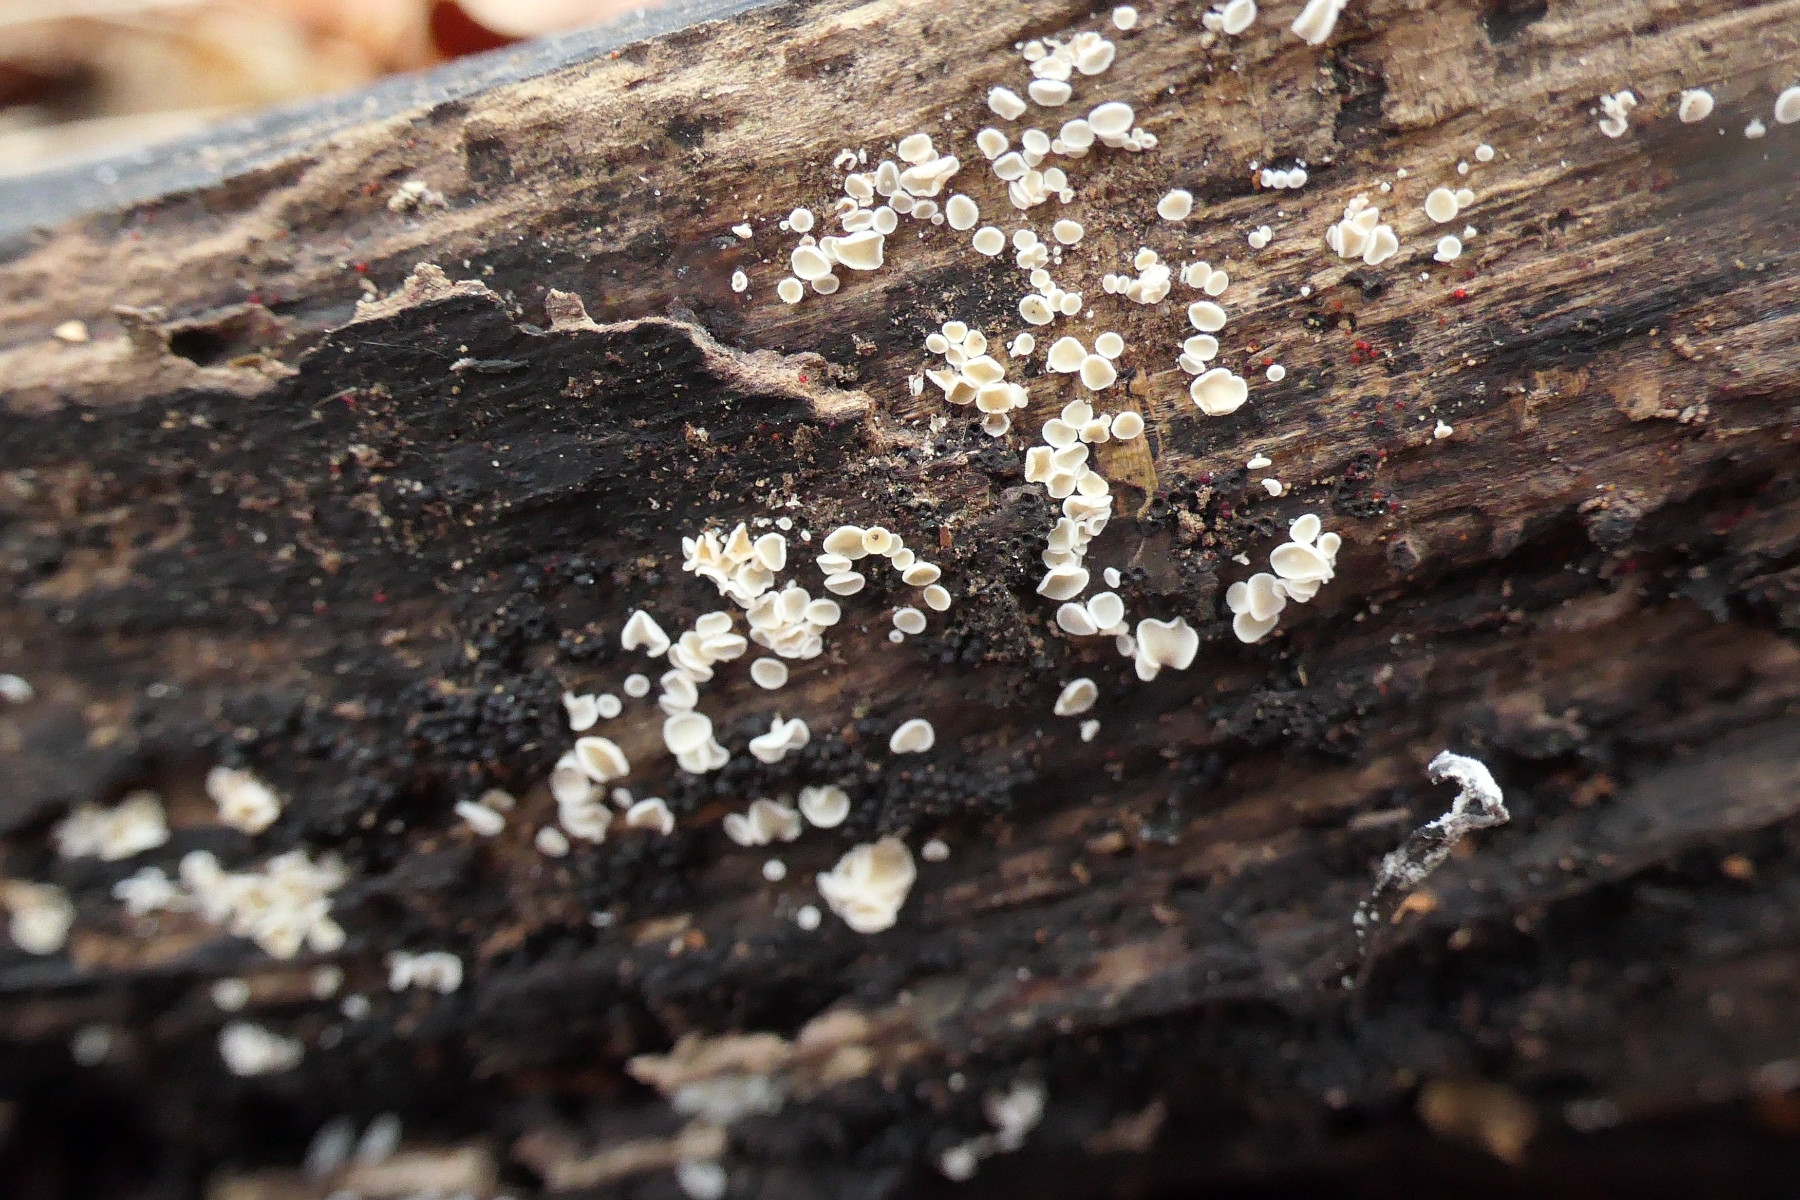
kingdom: Fungi
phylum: Ascomycota
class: Leotiomycetes
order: Helotiales
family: Lachnaceae
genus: Lachnum
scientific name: Lachnum impudicum
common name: vinter-frynseskive
